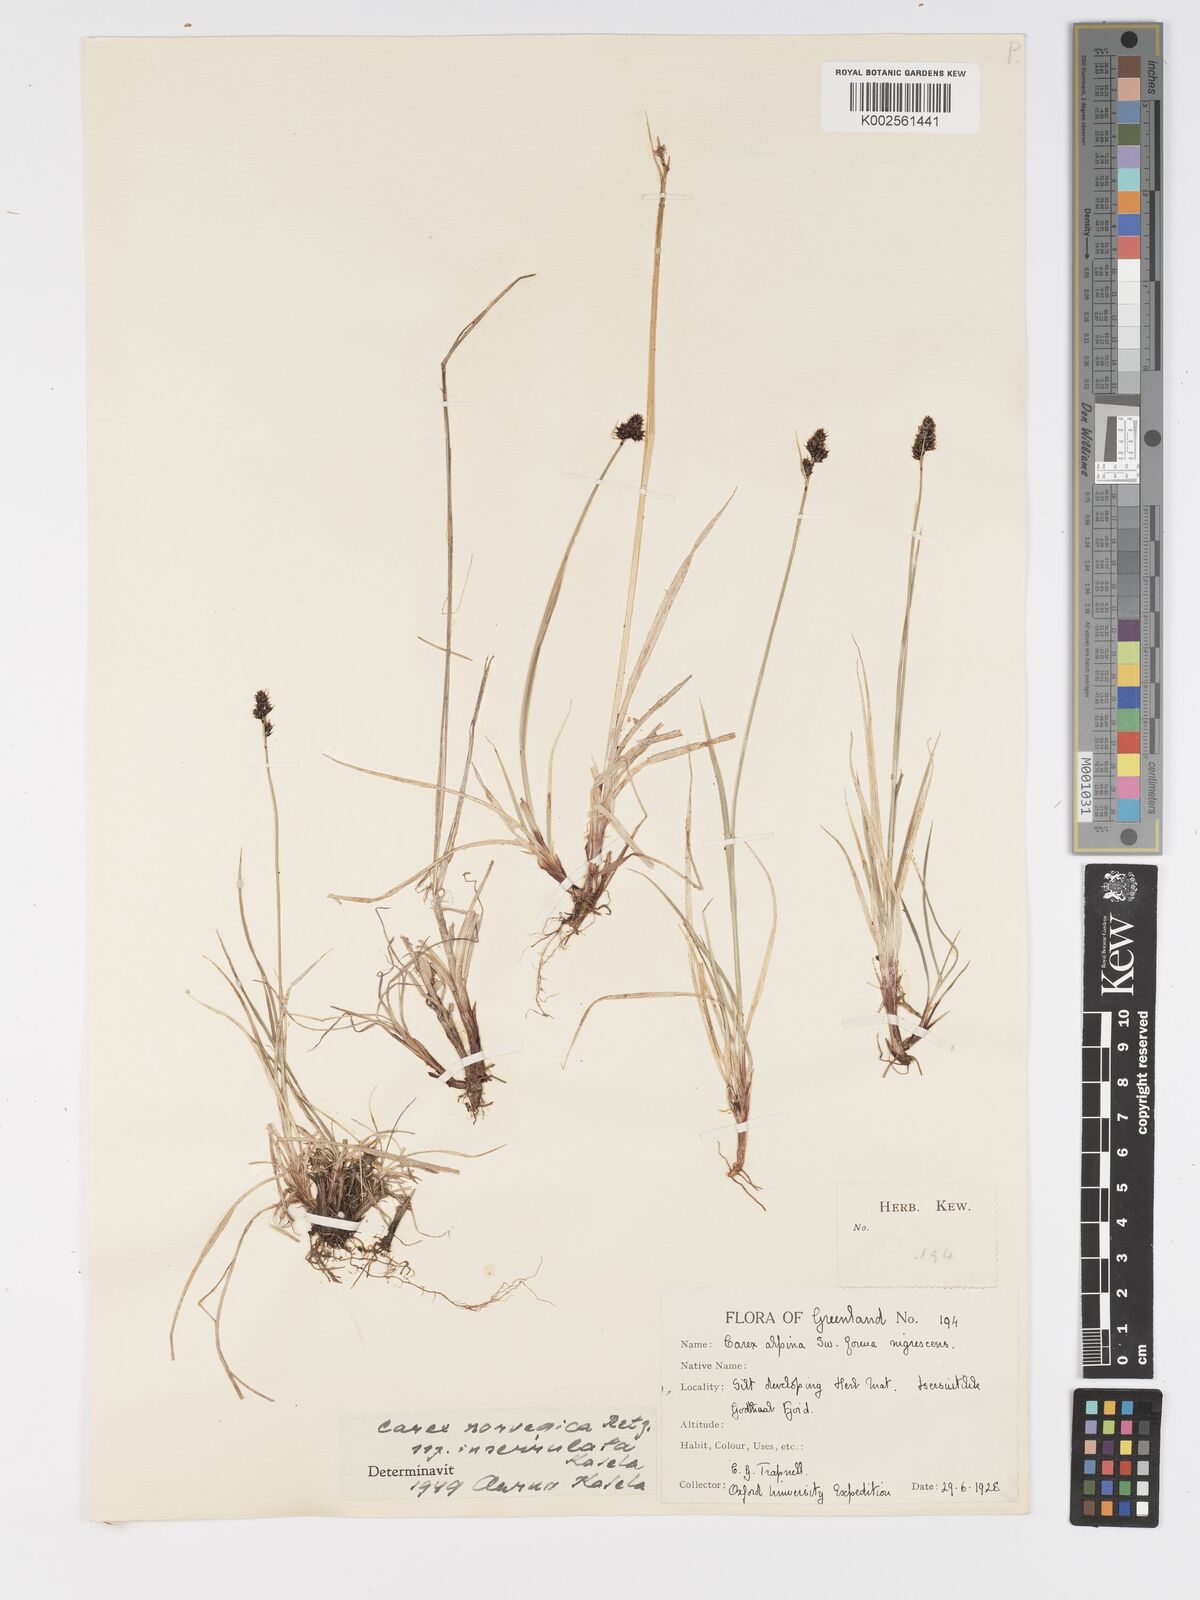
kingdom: Plantae
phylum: Tracheophyta
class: Liliopsida
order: Poales
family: Cyperaceae
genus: Carex
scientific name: Carex norvegica
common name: Close-headed alpine-sedge
